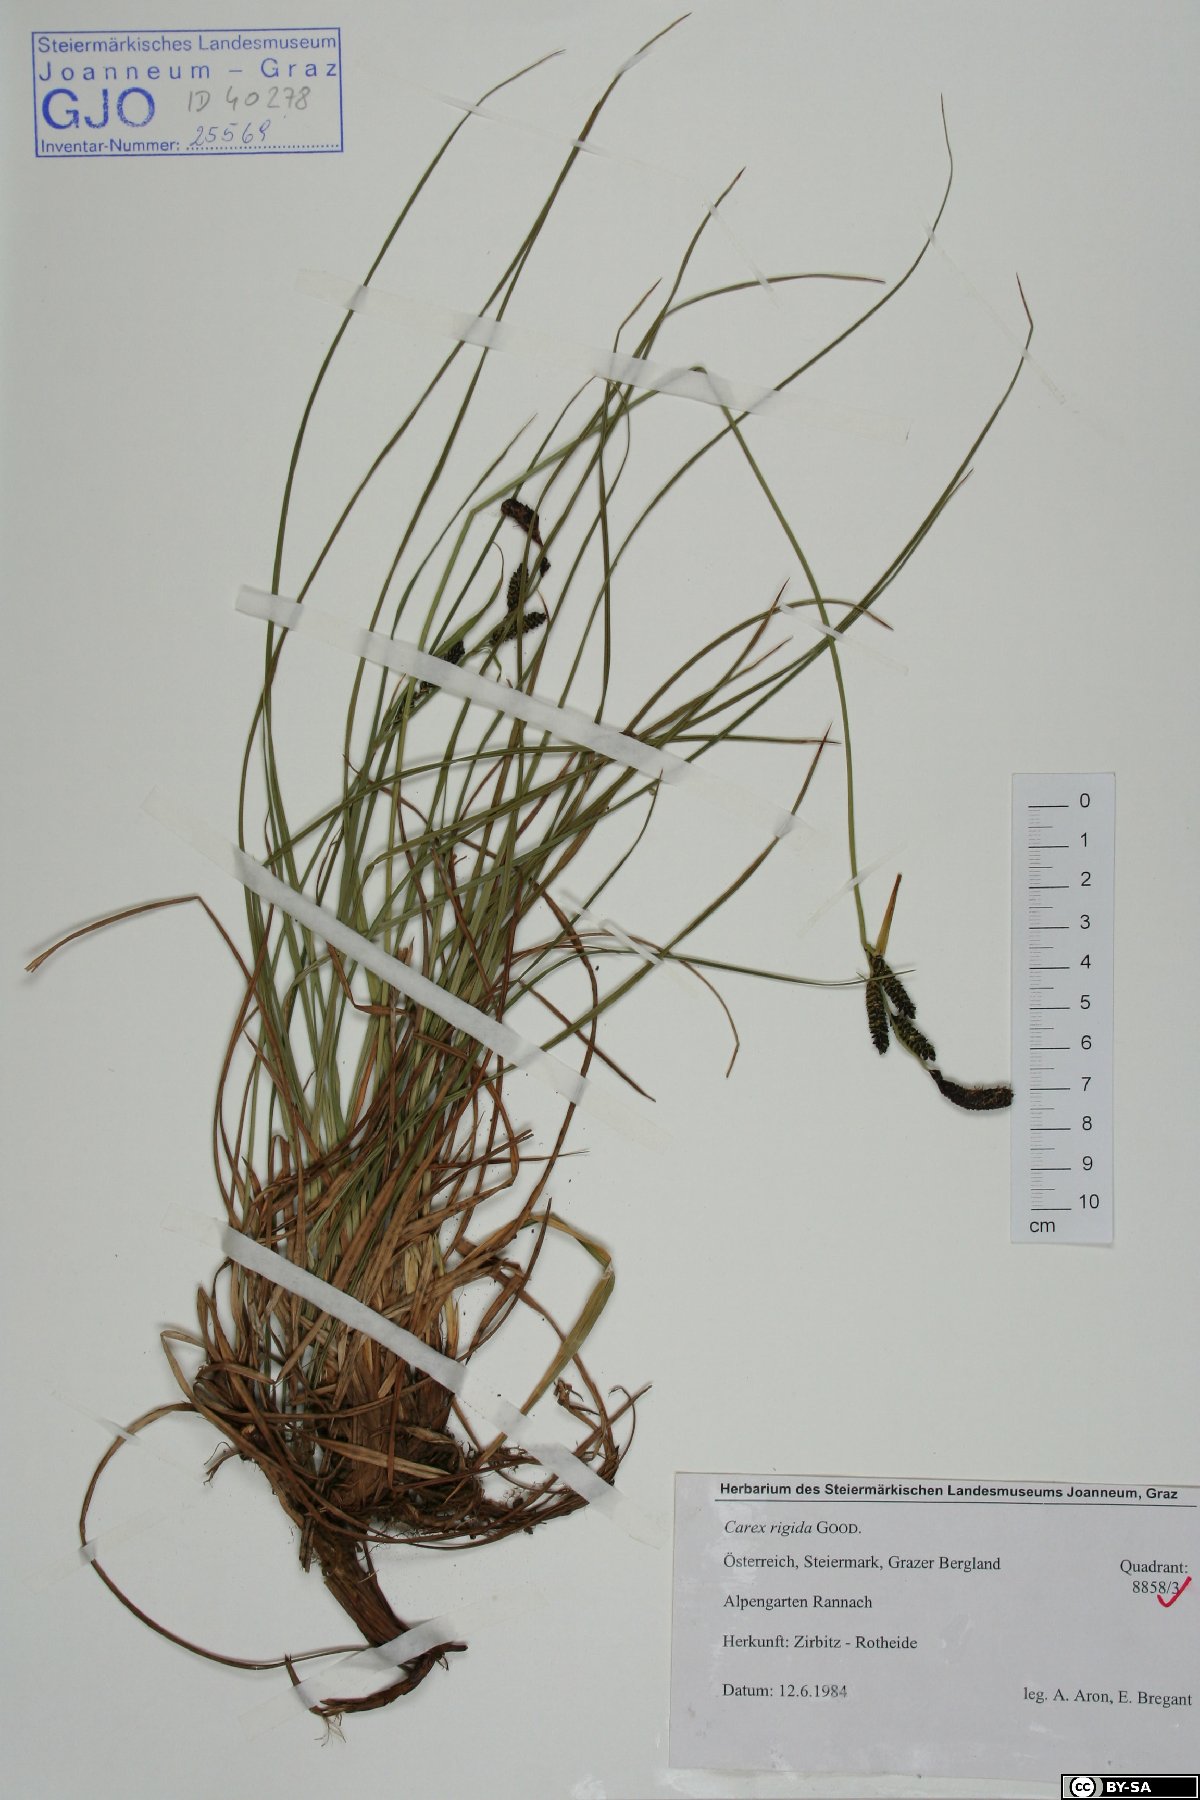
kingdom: Plantae
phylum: Tracheophyta
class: Liliopsida
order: Poales
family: Cyperaceae
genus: Carex
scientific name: Carex dacica
